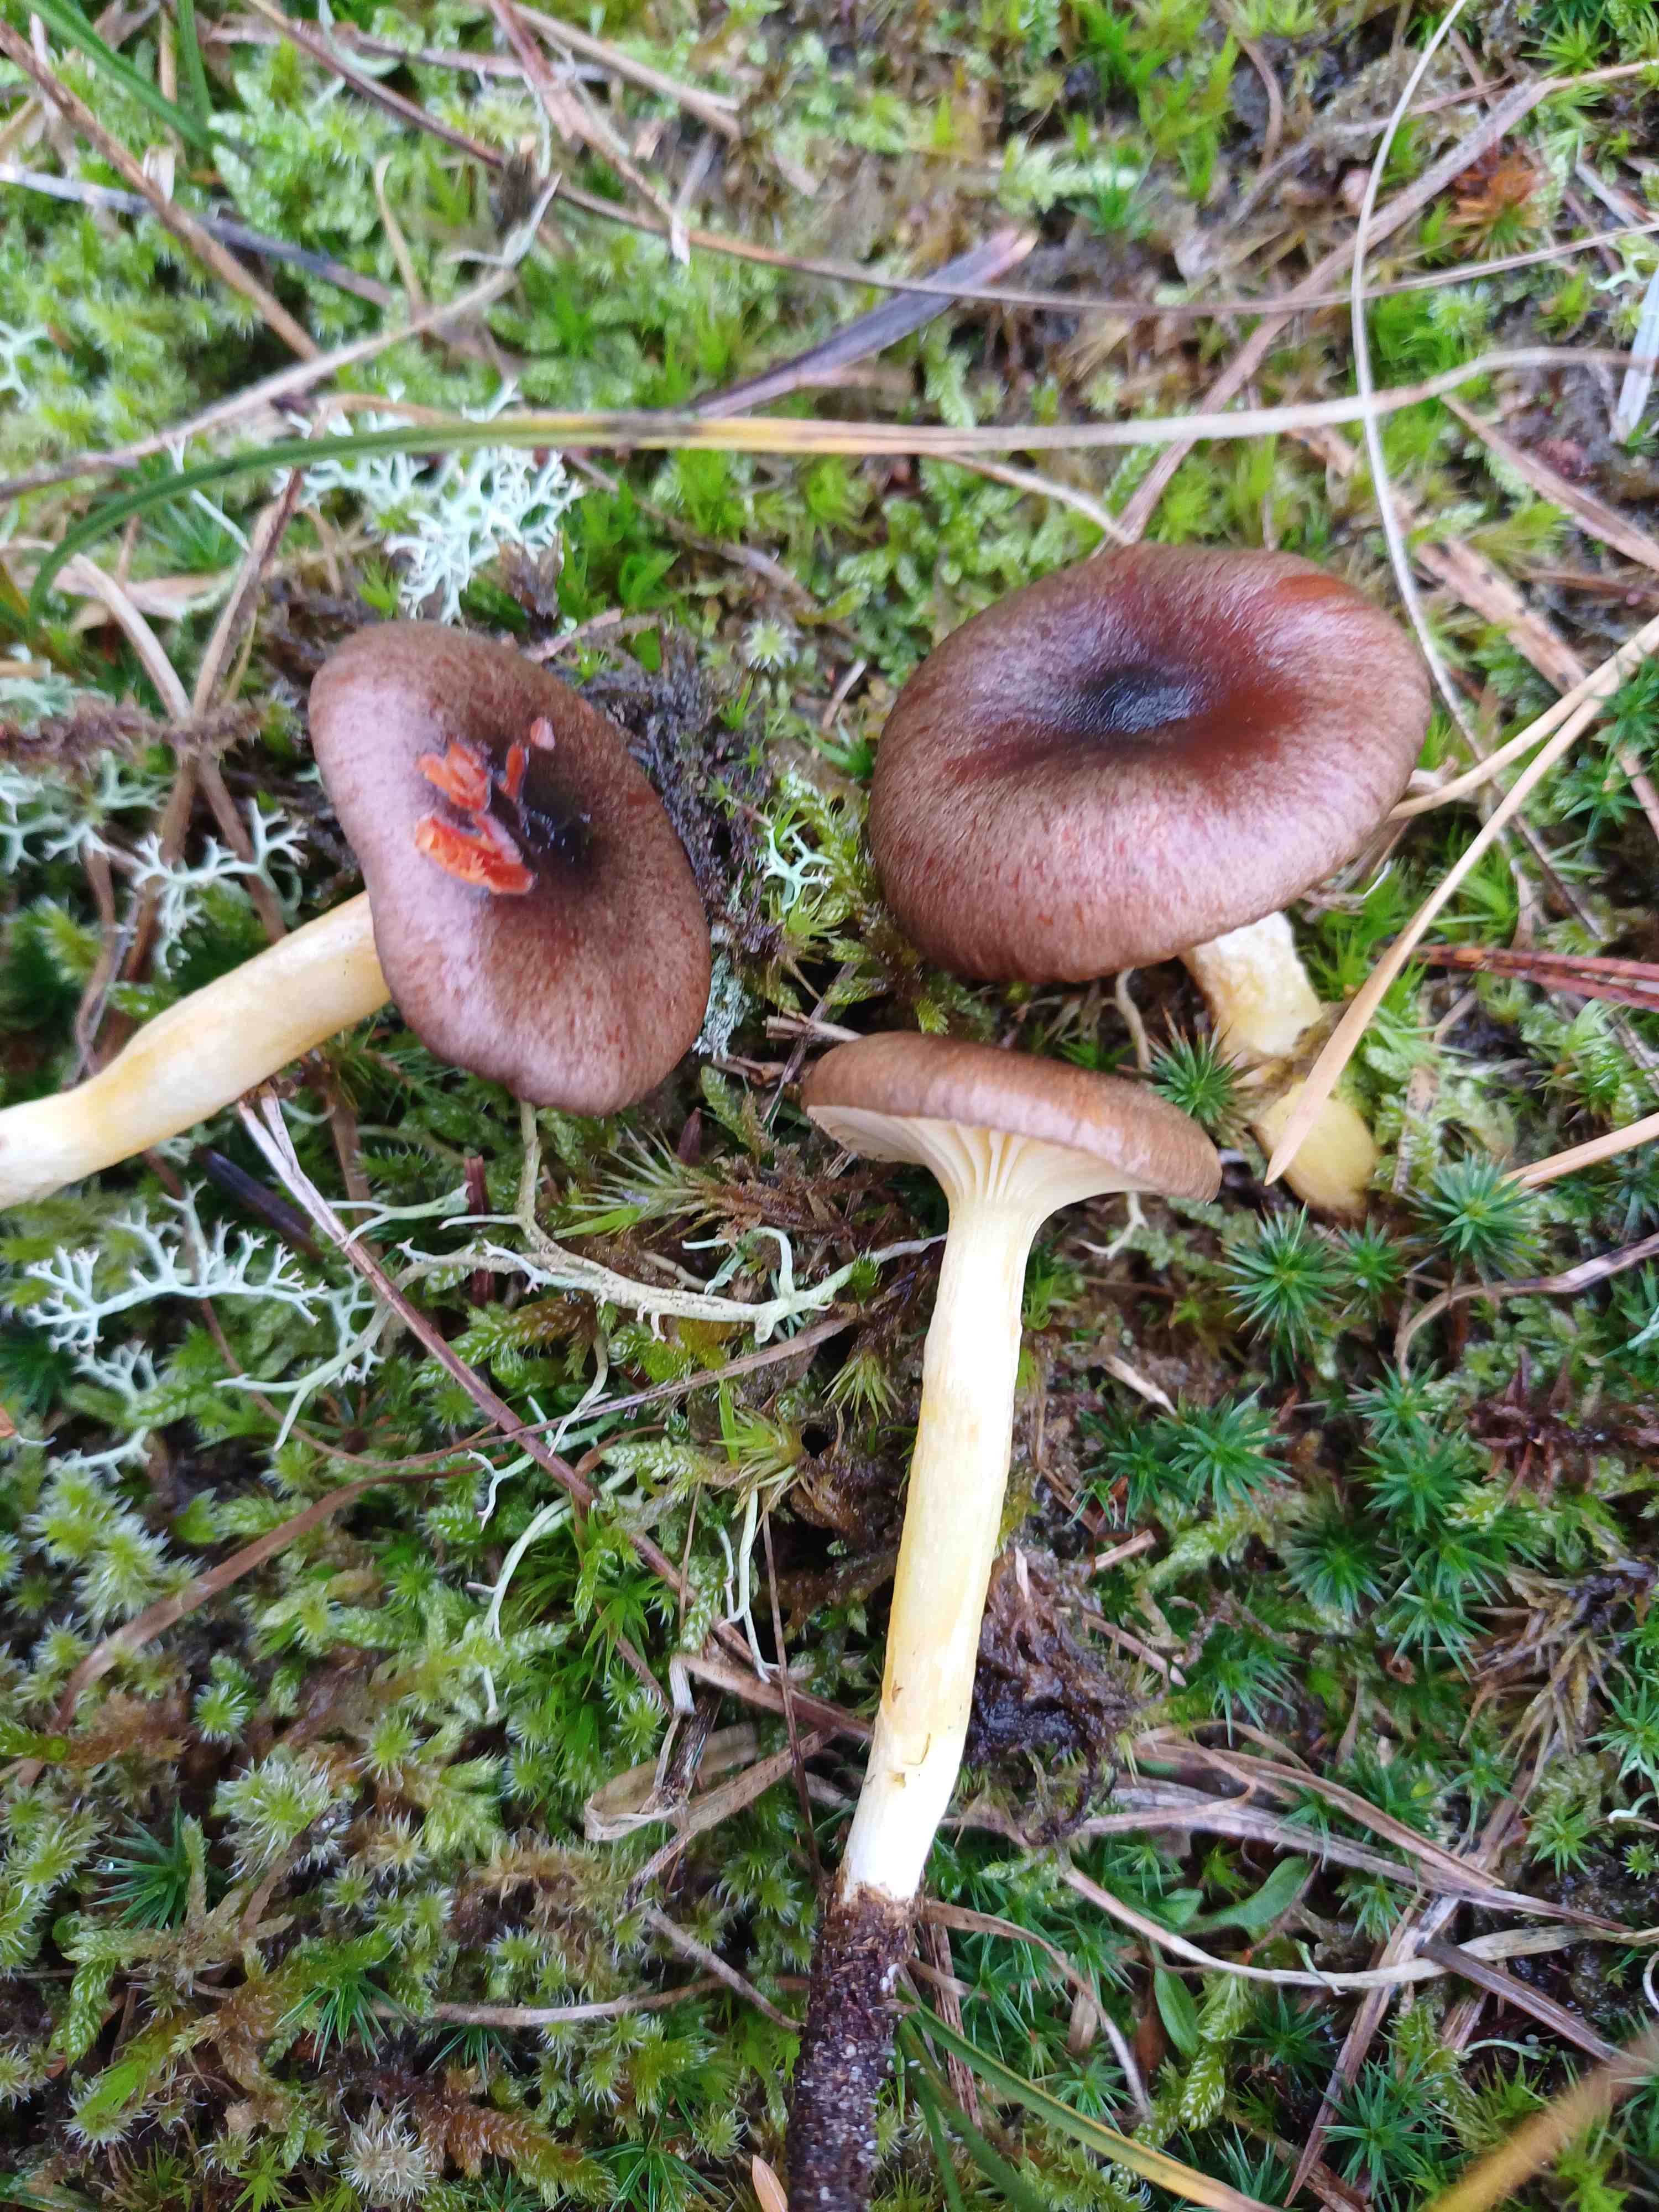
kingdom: Fungi
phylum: Basidiomycota
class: Agaricomycetes
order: Agaricales
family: Hygrophoraceae
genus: Hygrophorus
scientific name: Hygrophorus hypothejus
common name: frost-sneglehat
